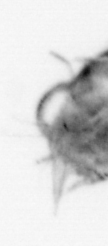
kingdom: Animalia
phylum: Arthropoda
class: Malacostraca
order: Decapoda
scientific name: Decapoda
